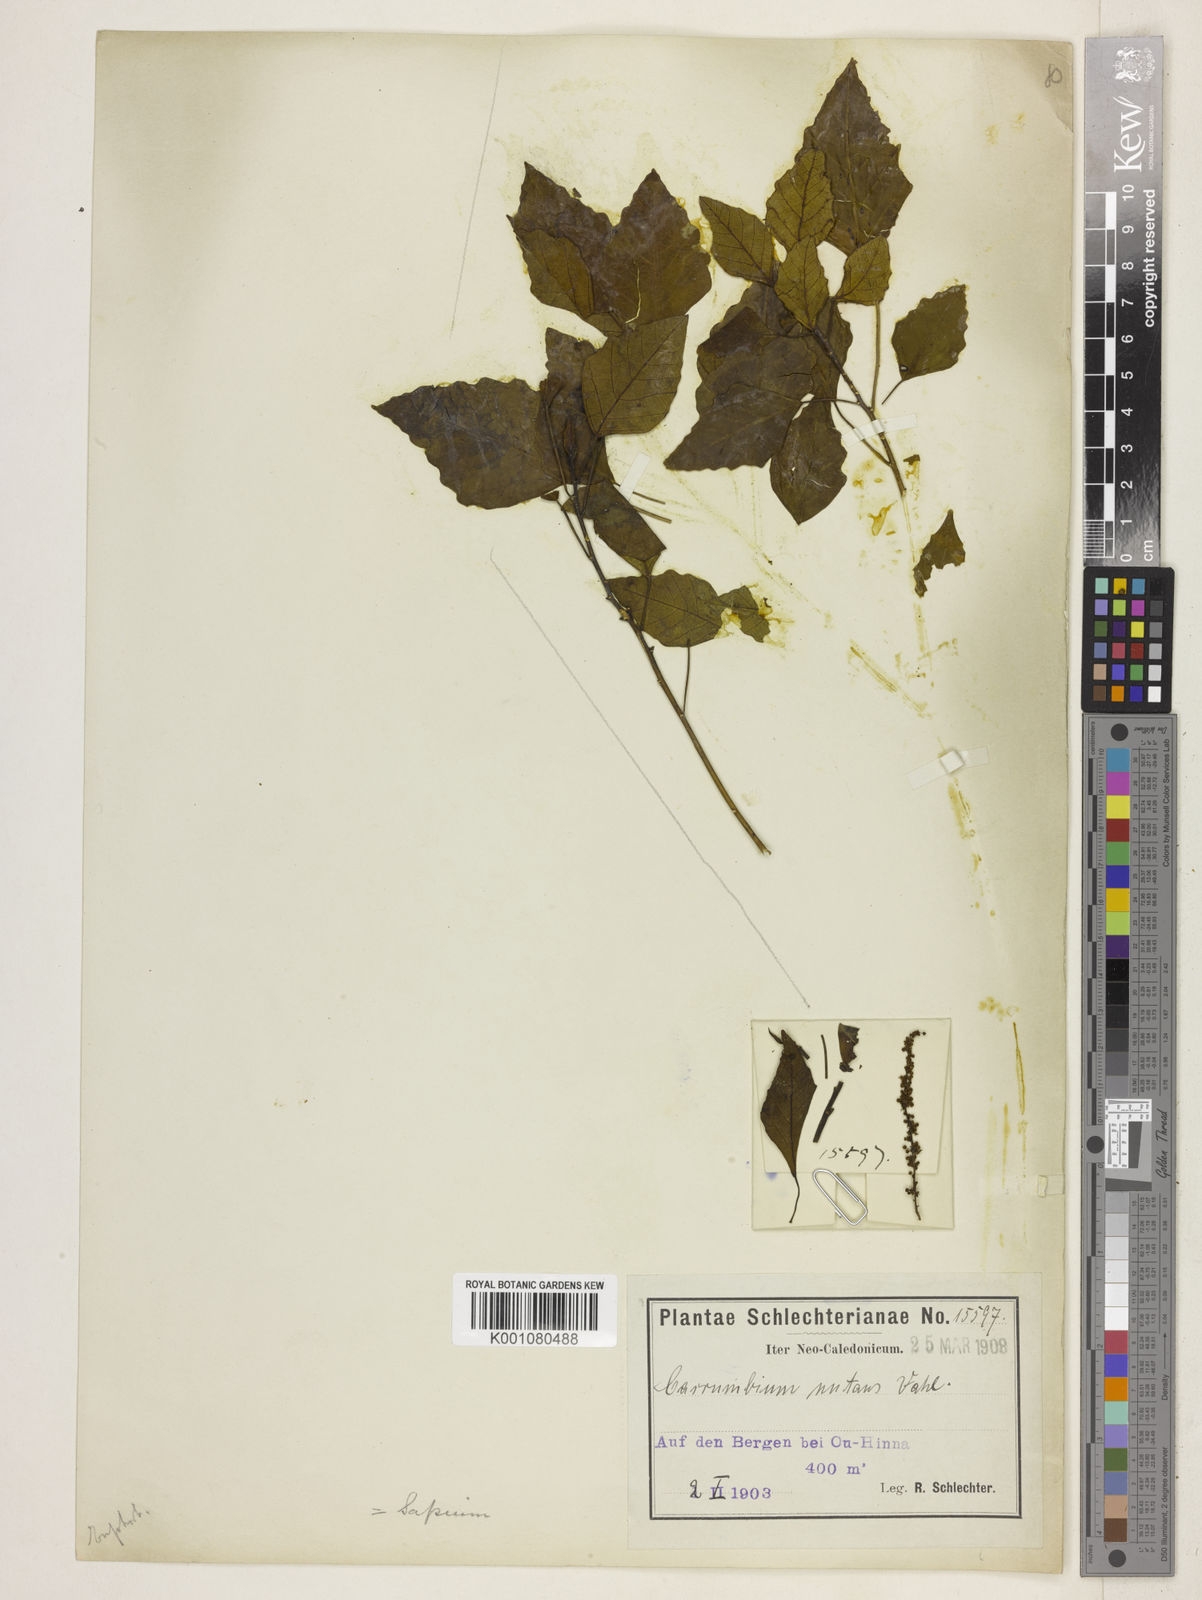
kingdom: Plantae
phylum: Tracheophyta
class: Magnoliopsida
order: Malpighiales
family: Euphorbiaceae
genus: Homalanthus
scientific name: Homalanthus repandus
